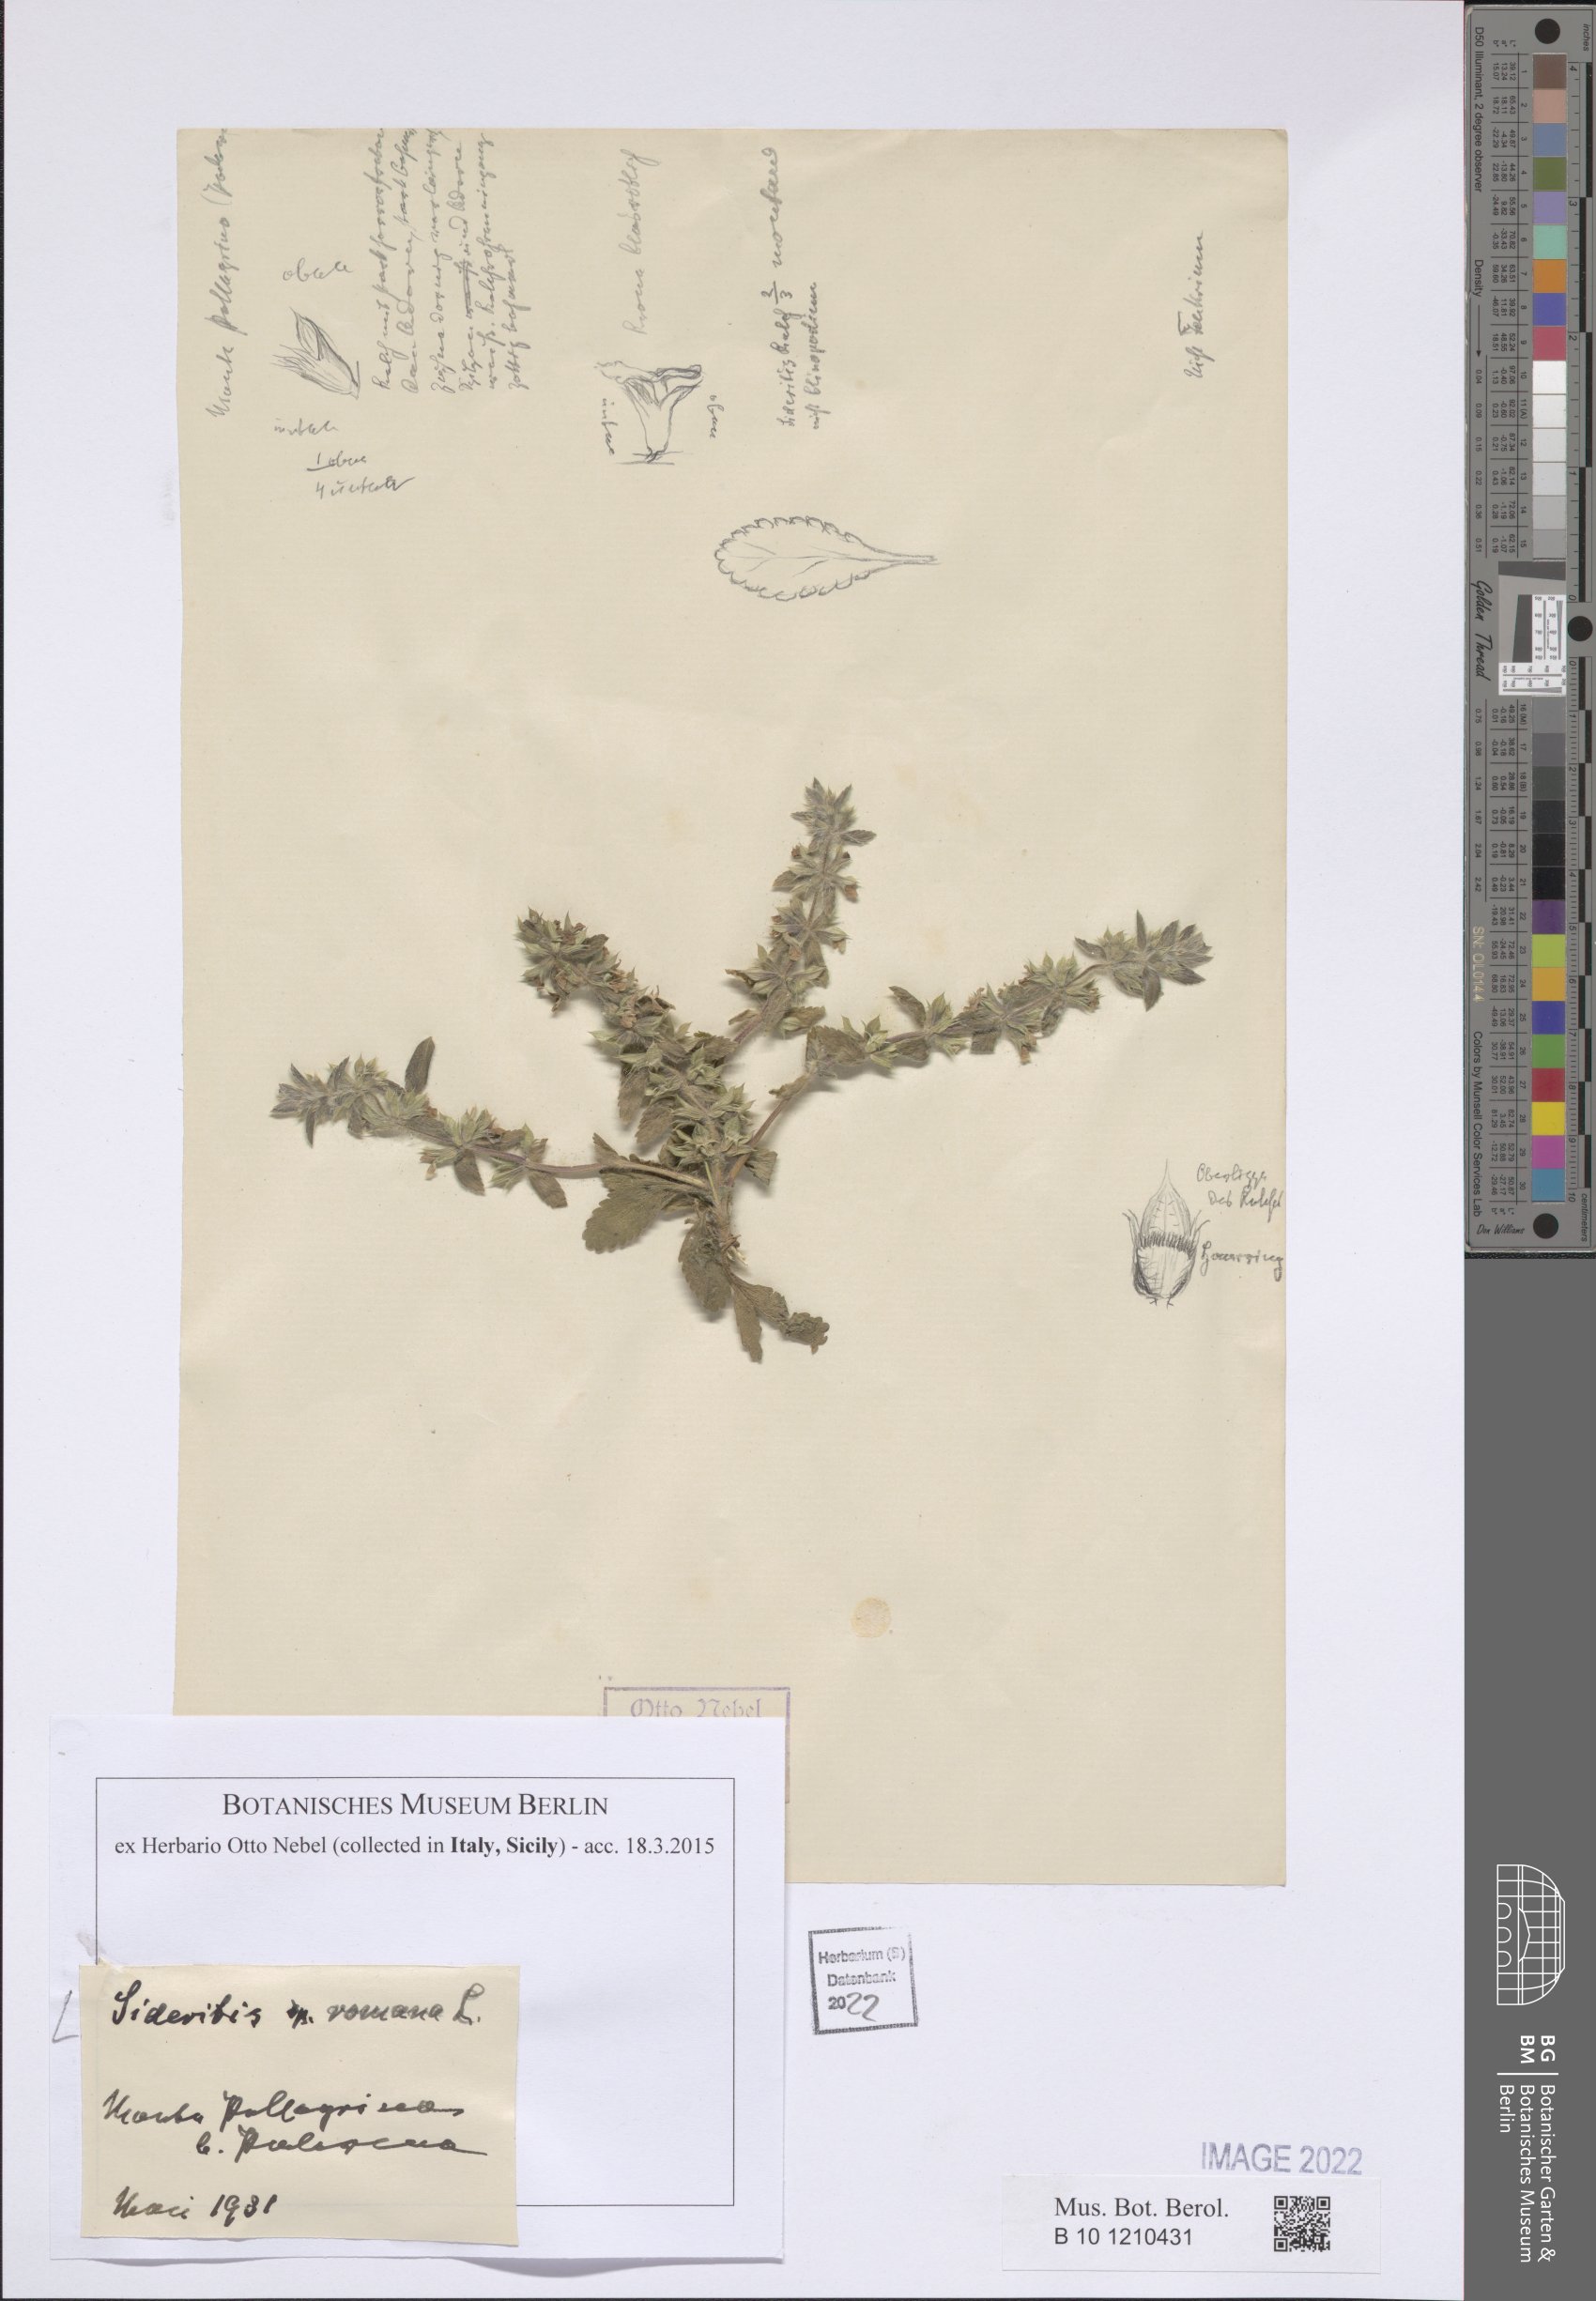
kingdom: Plantae
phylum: Tracheophyta
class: Magnoliopsida
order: Lamiales
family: Lamiaceae
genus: Sideritis
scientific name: Sideritis romana
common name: Simplebeak ironwort
